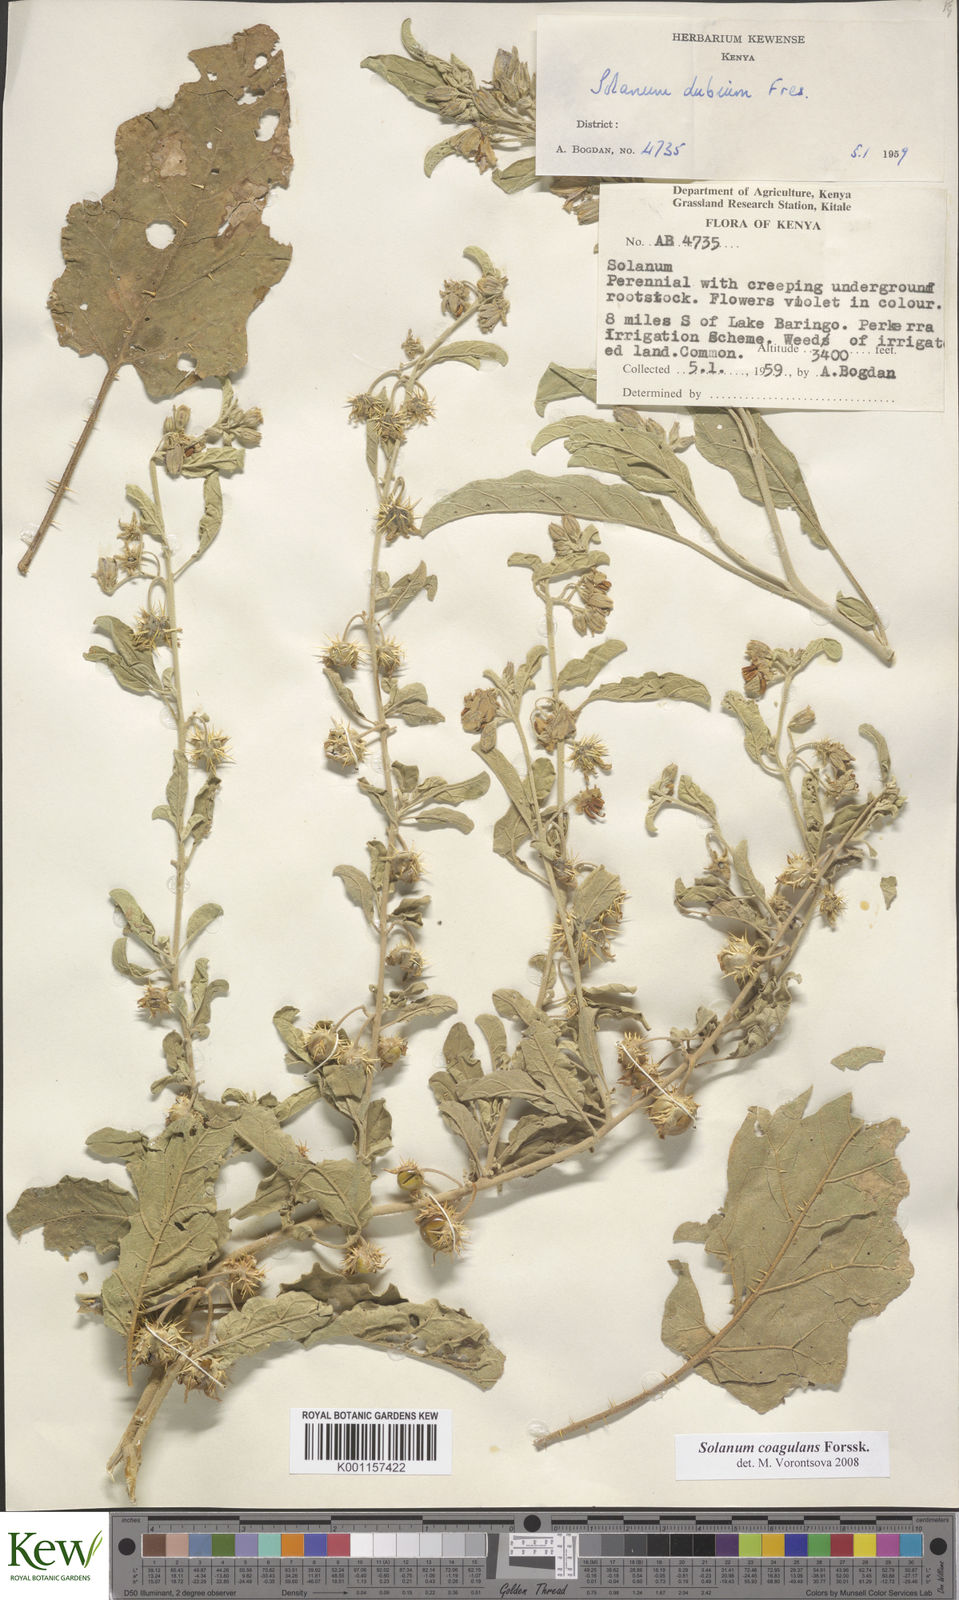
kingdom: Plantae
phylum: Tracheophyta
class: Magnoliopsida
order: Solanales
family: Solanaceae
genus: Solanum
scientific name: Solanum coagulans
